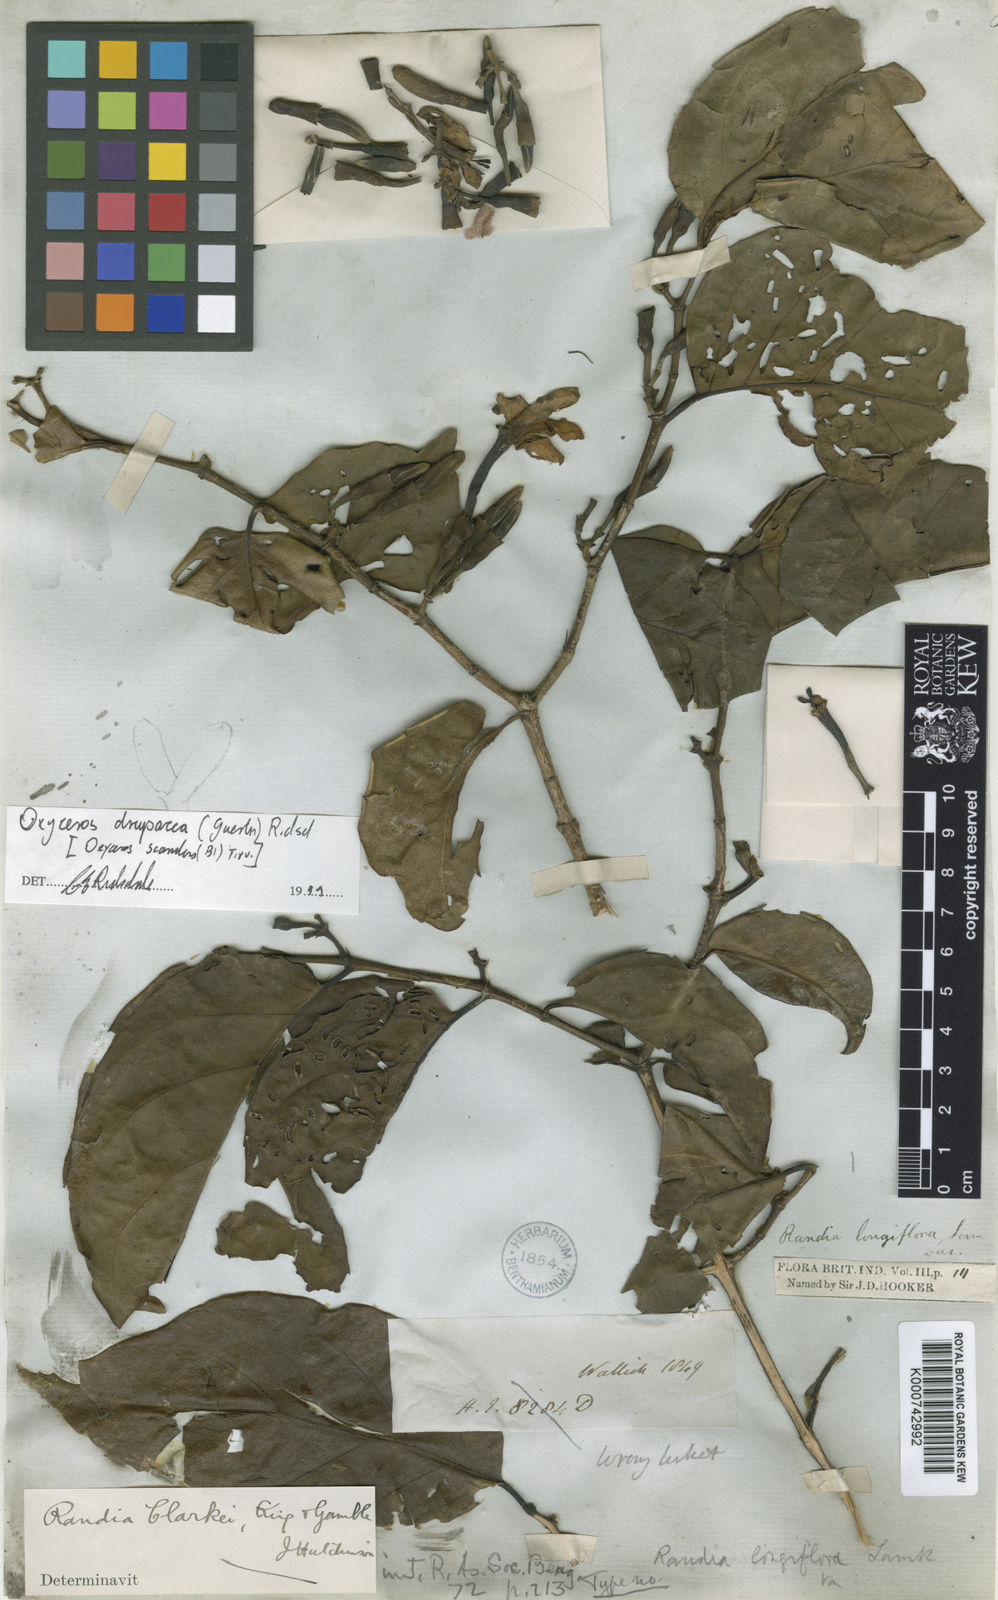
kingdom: Plantae
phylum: Tracheophyta
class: Magnoliopsida
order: Gentianales
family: Rubiaceae
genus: Oxyceros
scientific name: Oxyceros drupaceus
